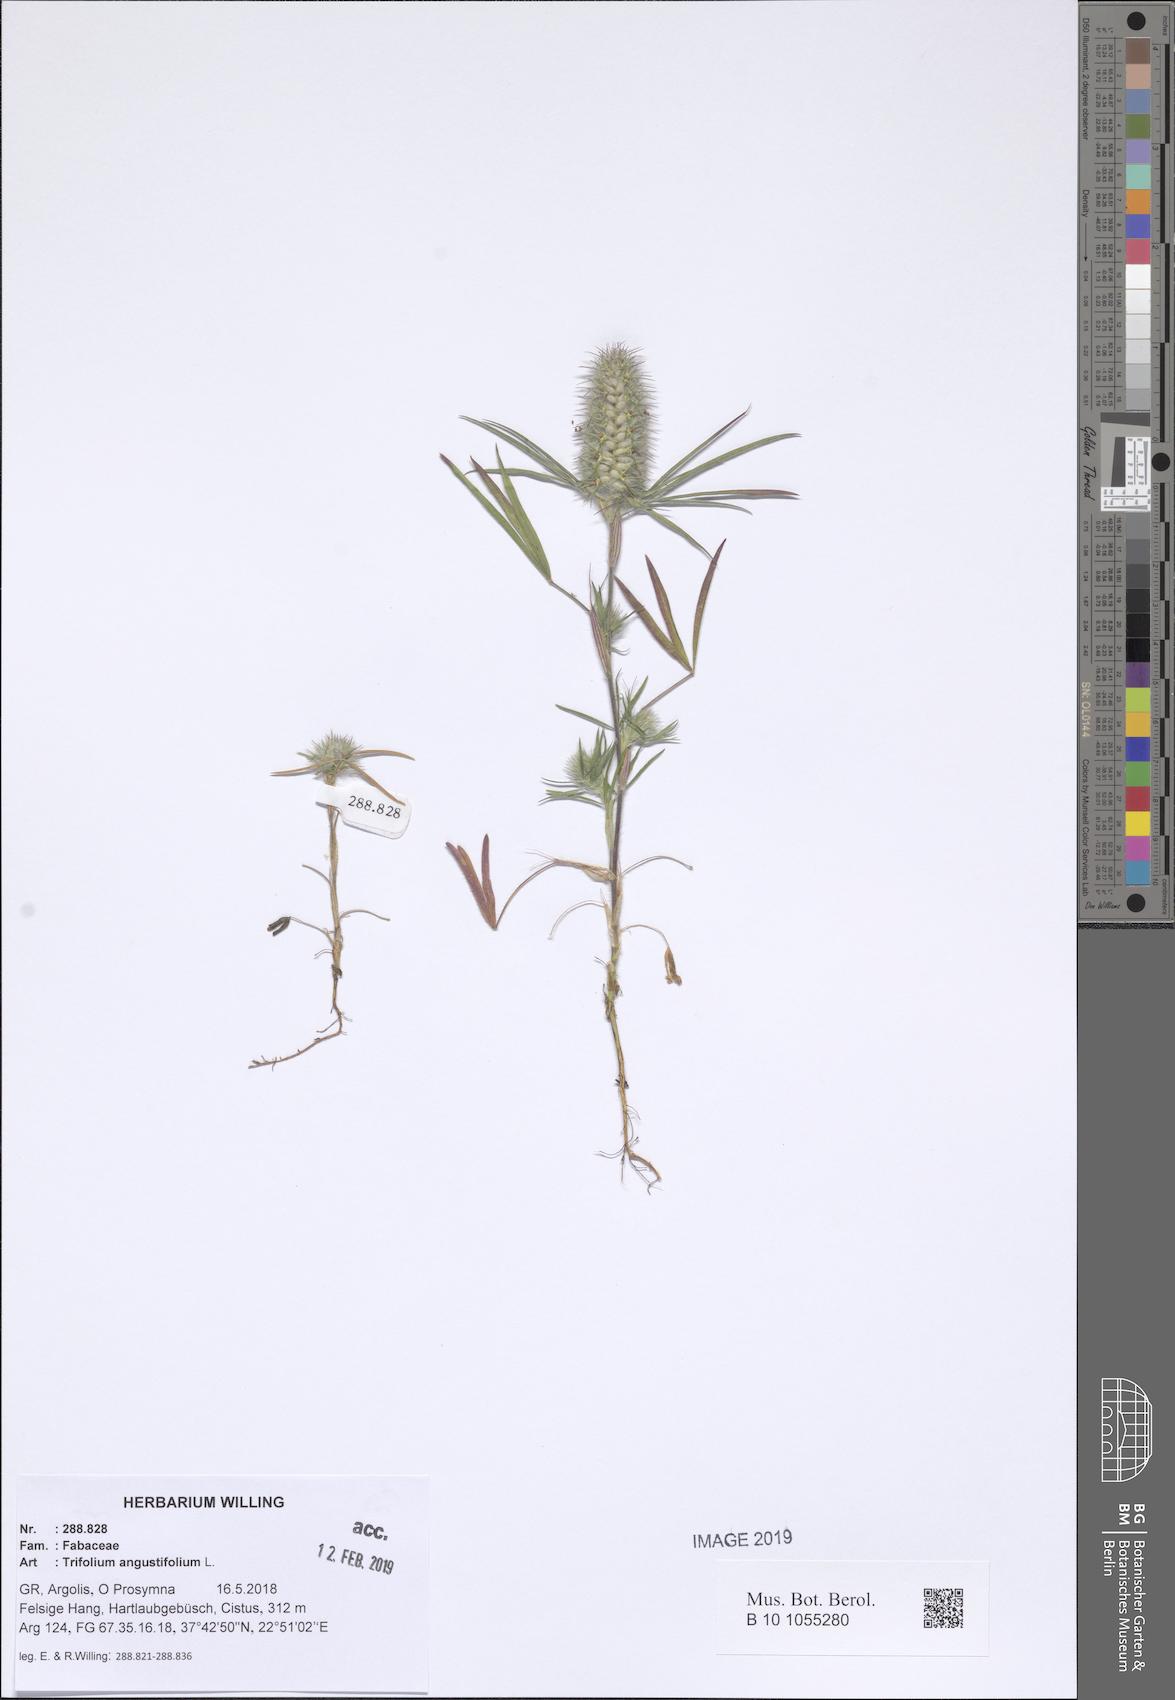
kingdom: Plantae
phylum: Tracheophyta
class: Magnoliopsida
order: Fabales
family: Fabaceae
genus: Trifolium
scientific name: Trifolium angustifolium
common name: Narrow clover
